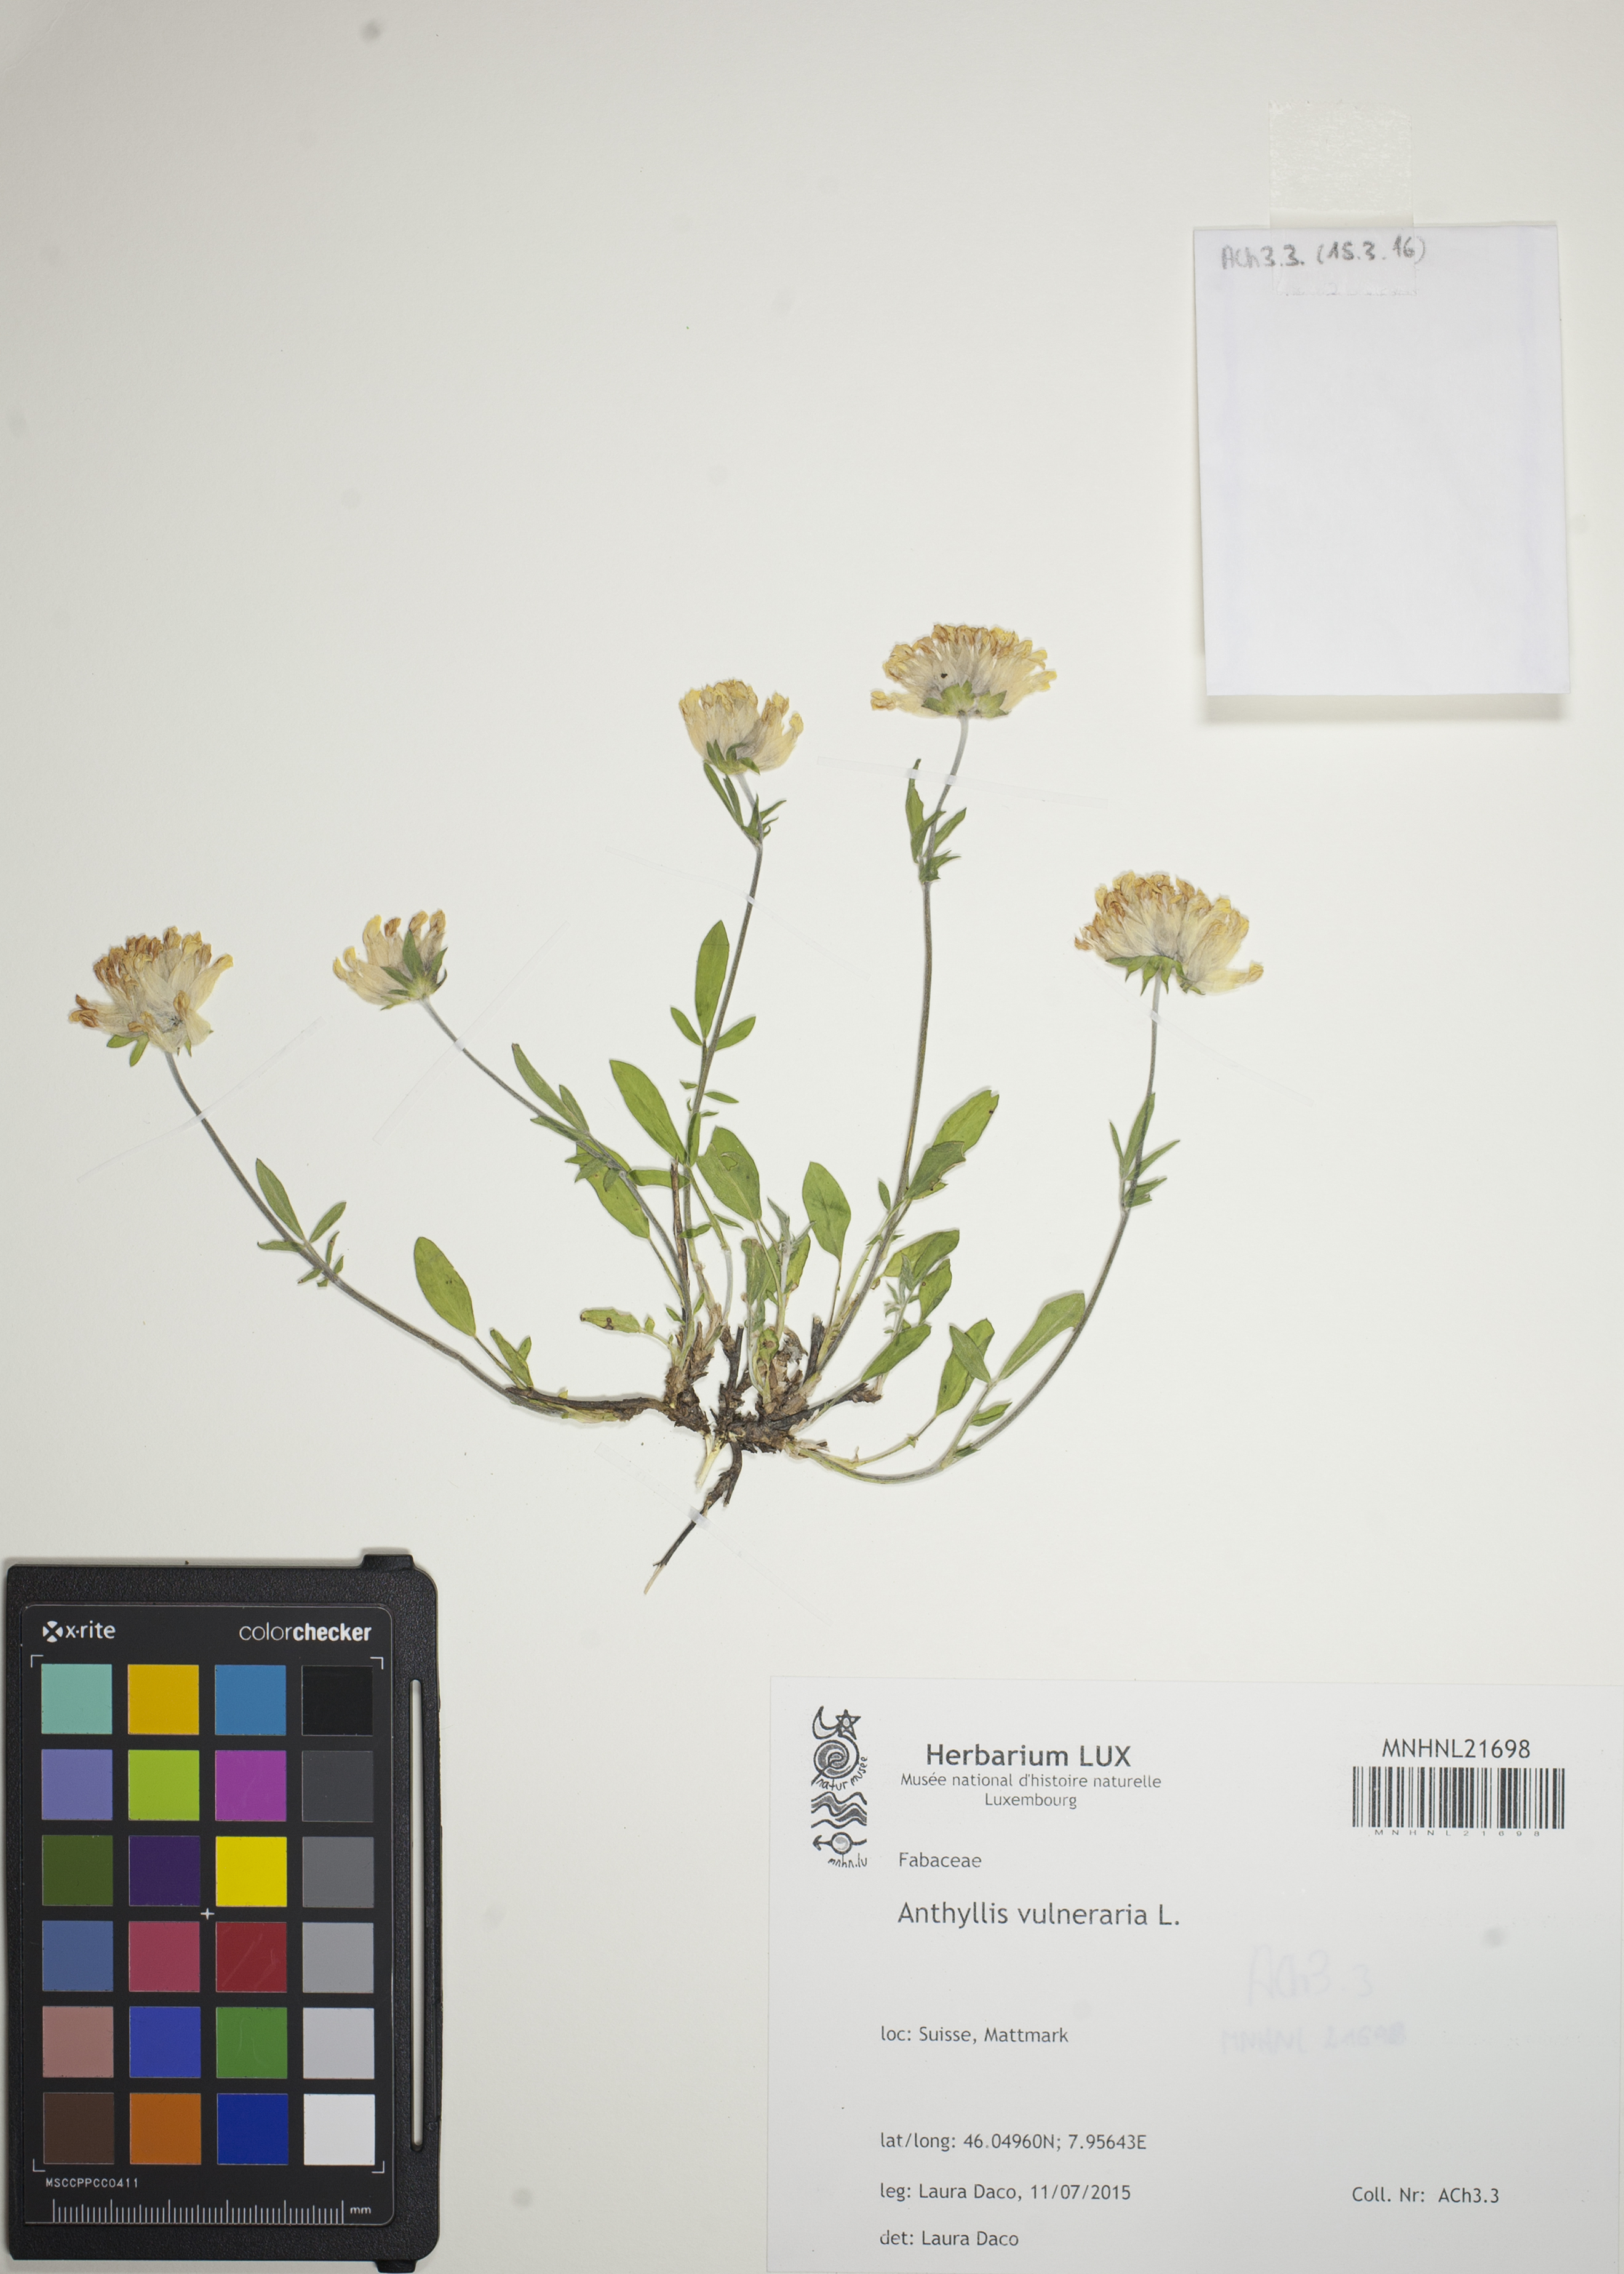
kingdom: Plantae
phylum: Tracheophyta
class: Magnoliopsida
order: Fabales
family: Fabaceae
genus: Anthyllis
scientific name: Anthyllis vulneraria
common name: Kidney vetch
